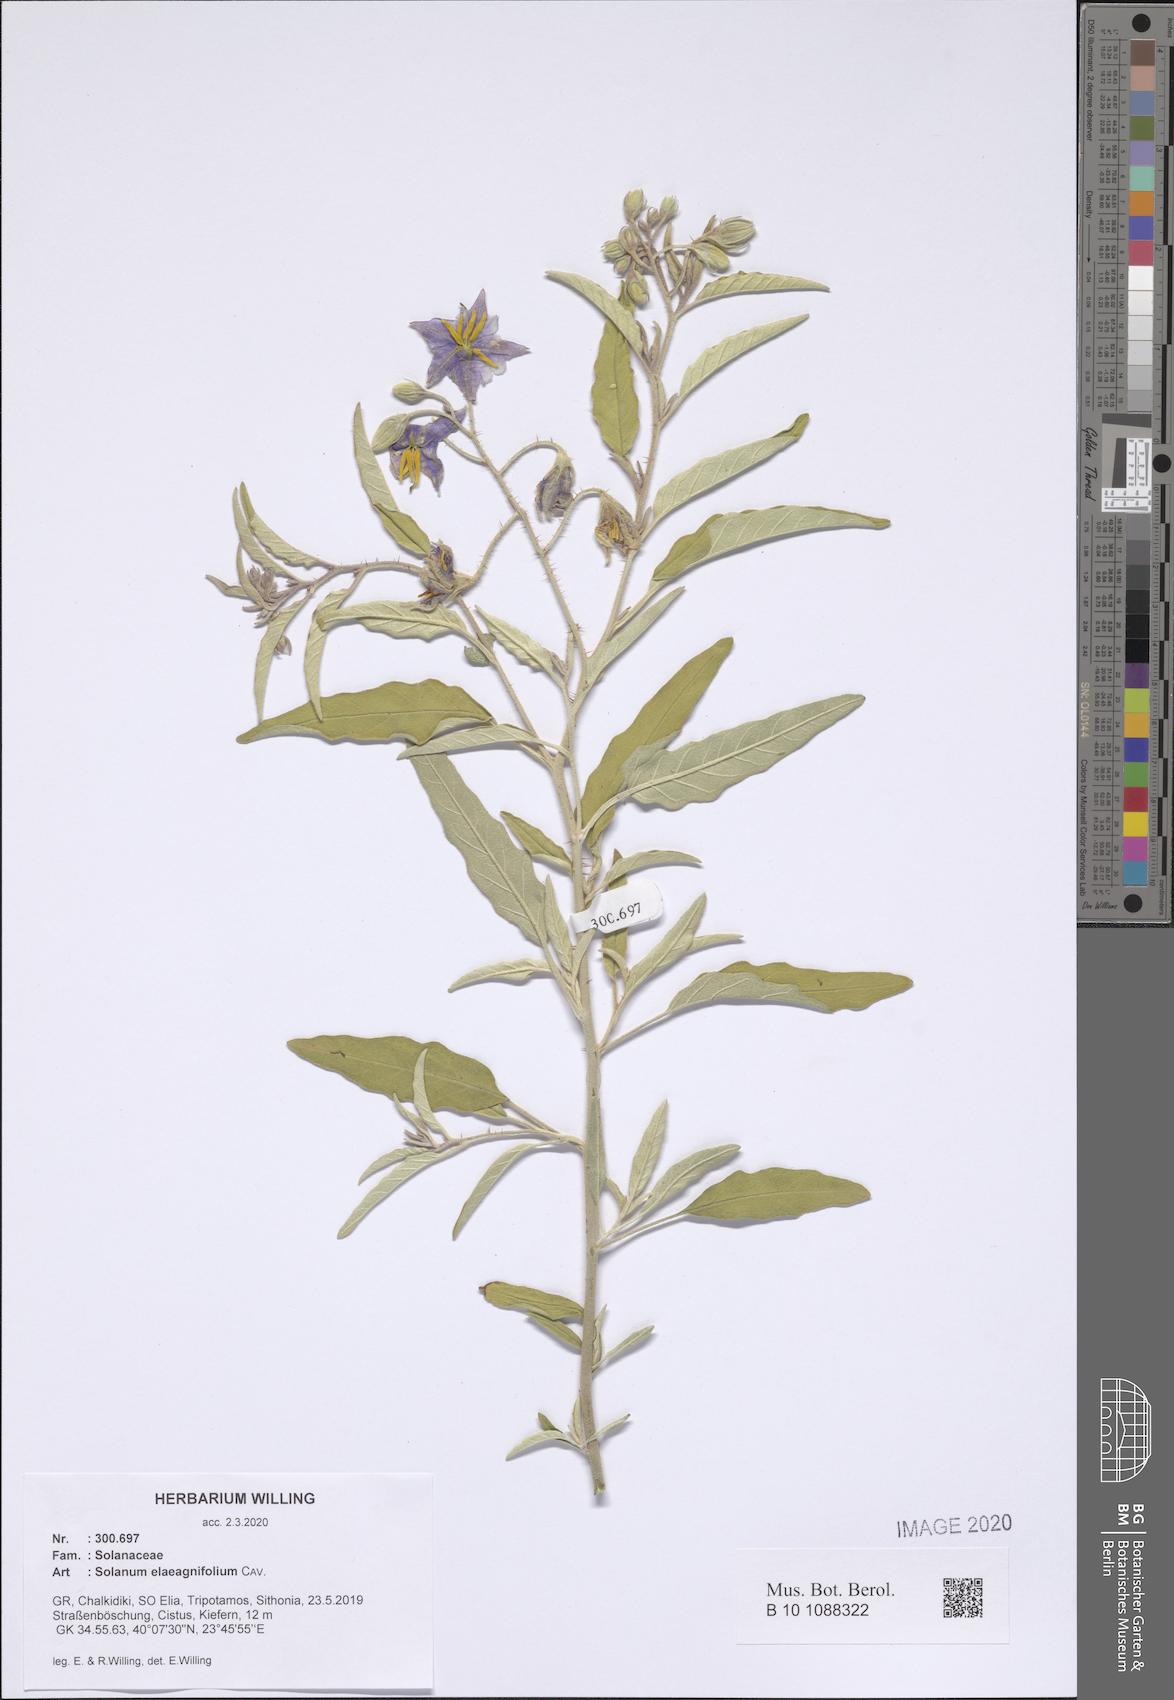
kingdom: Plantae
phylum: Tracheophyta
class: Magnoliopsida
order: Solanales
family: Solanaceae
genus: Solanum
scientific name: Solanum elaeagnifolium
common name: Silverleaf nightshade
